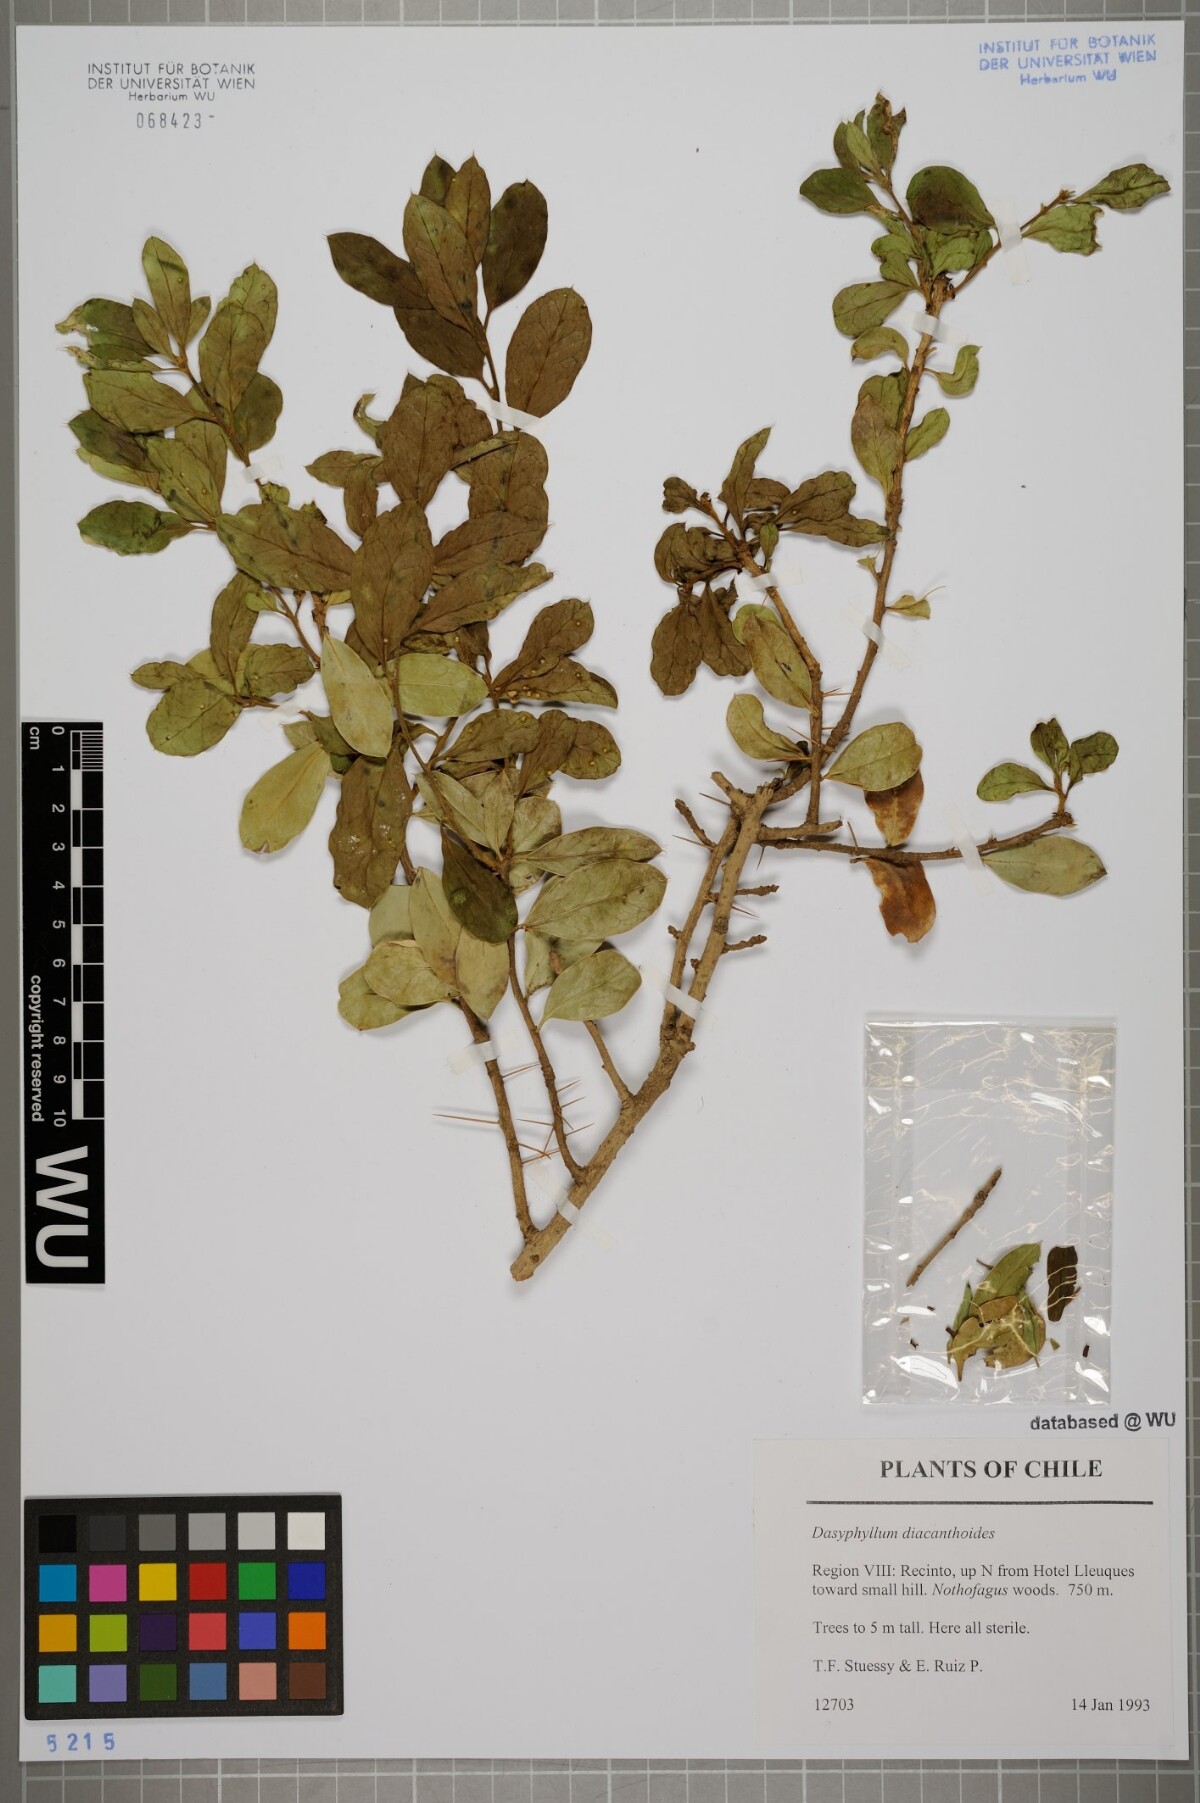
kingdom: Plantae
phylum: Tracheophyta
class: Magnoliopsida
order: Asterales
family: Asteraceae
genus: Archidasyphyllum
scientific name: Archidasyphyllum diacanthoides
